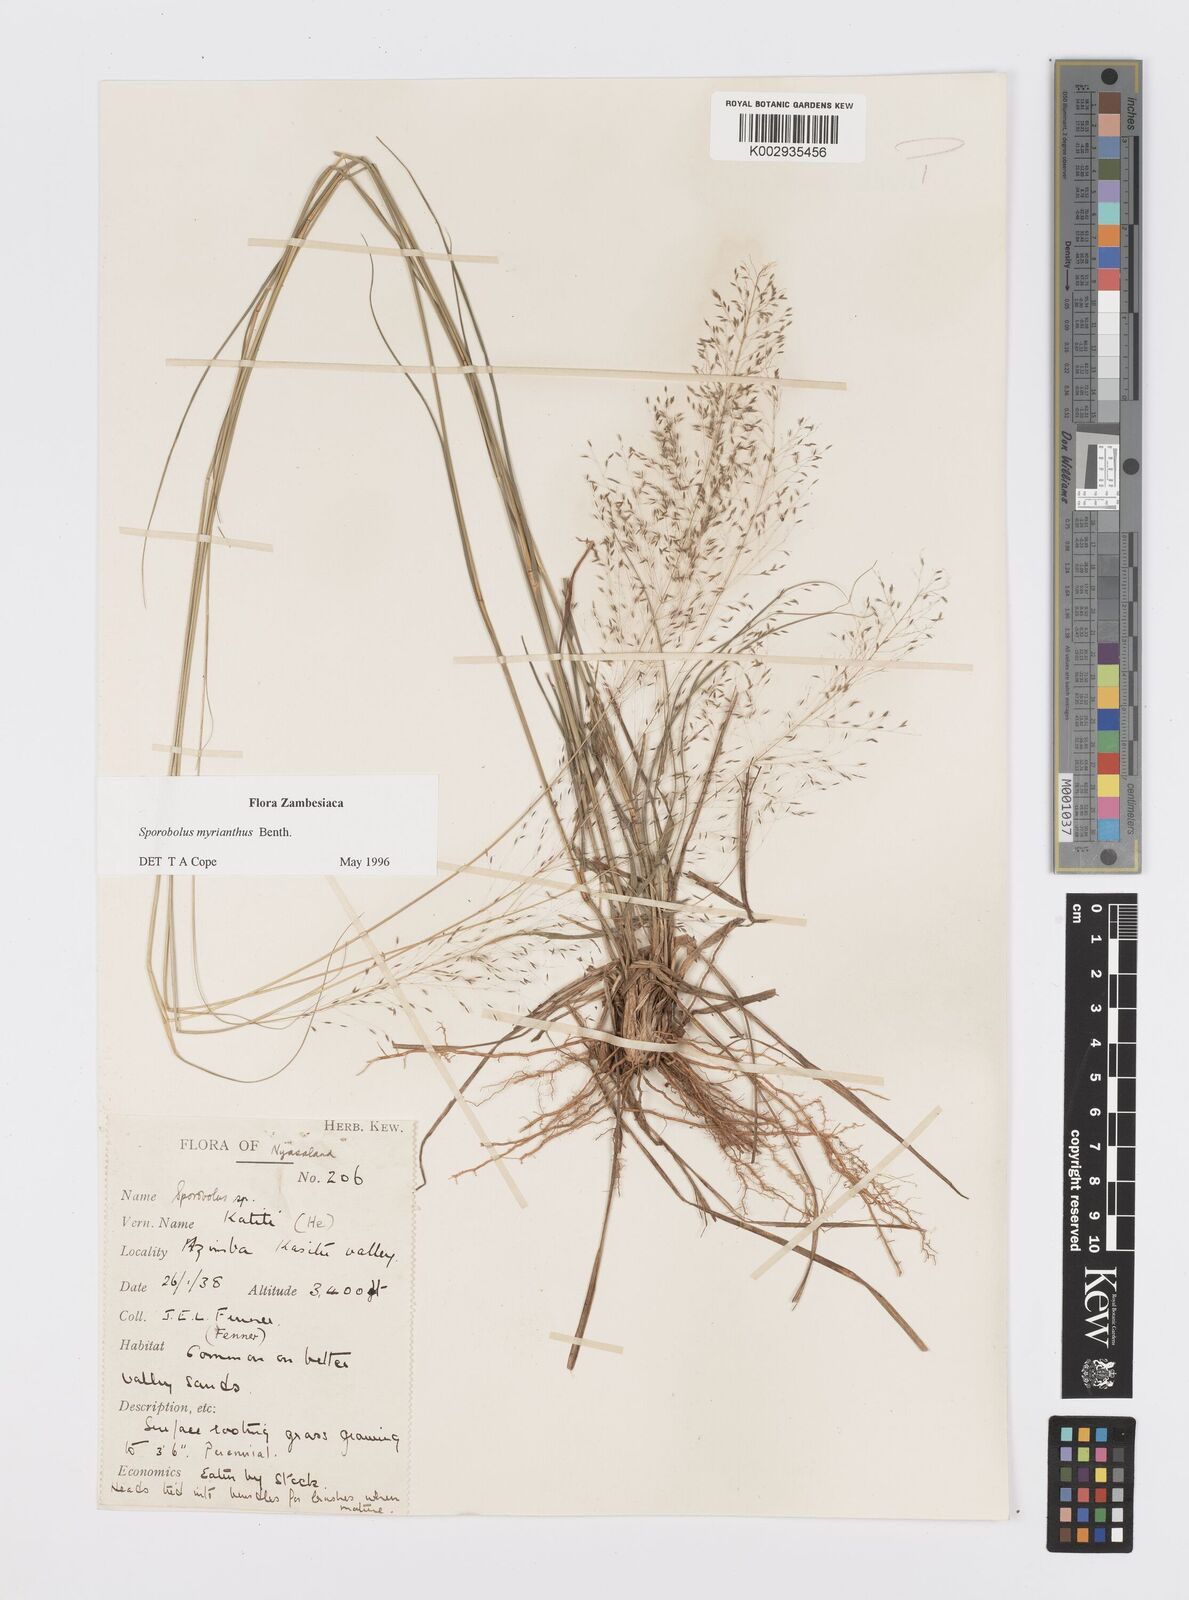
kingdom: Plantae
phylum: Tracheophyta
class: Liliopsida
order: Poales
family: Poaceae
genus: Sporobolus
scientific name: Sporobolus myrianthus
